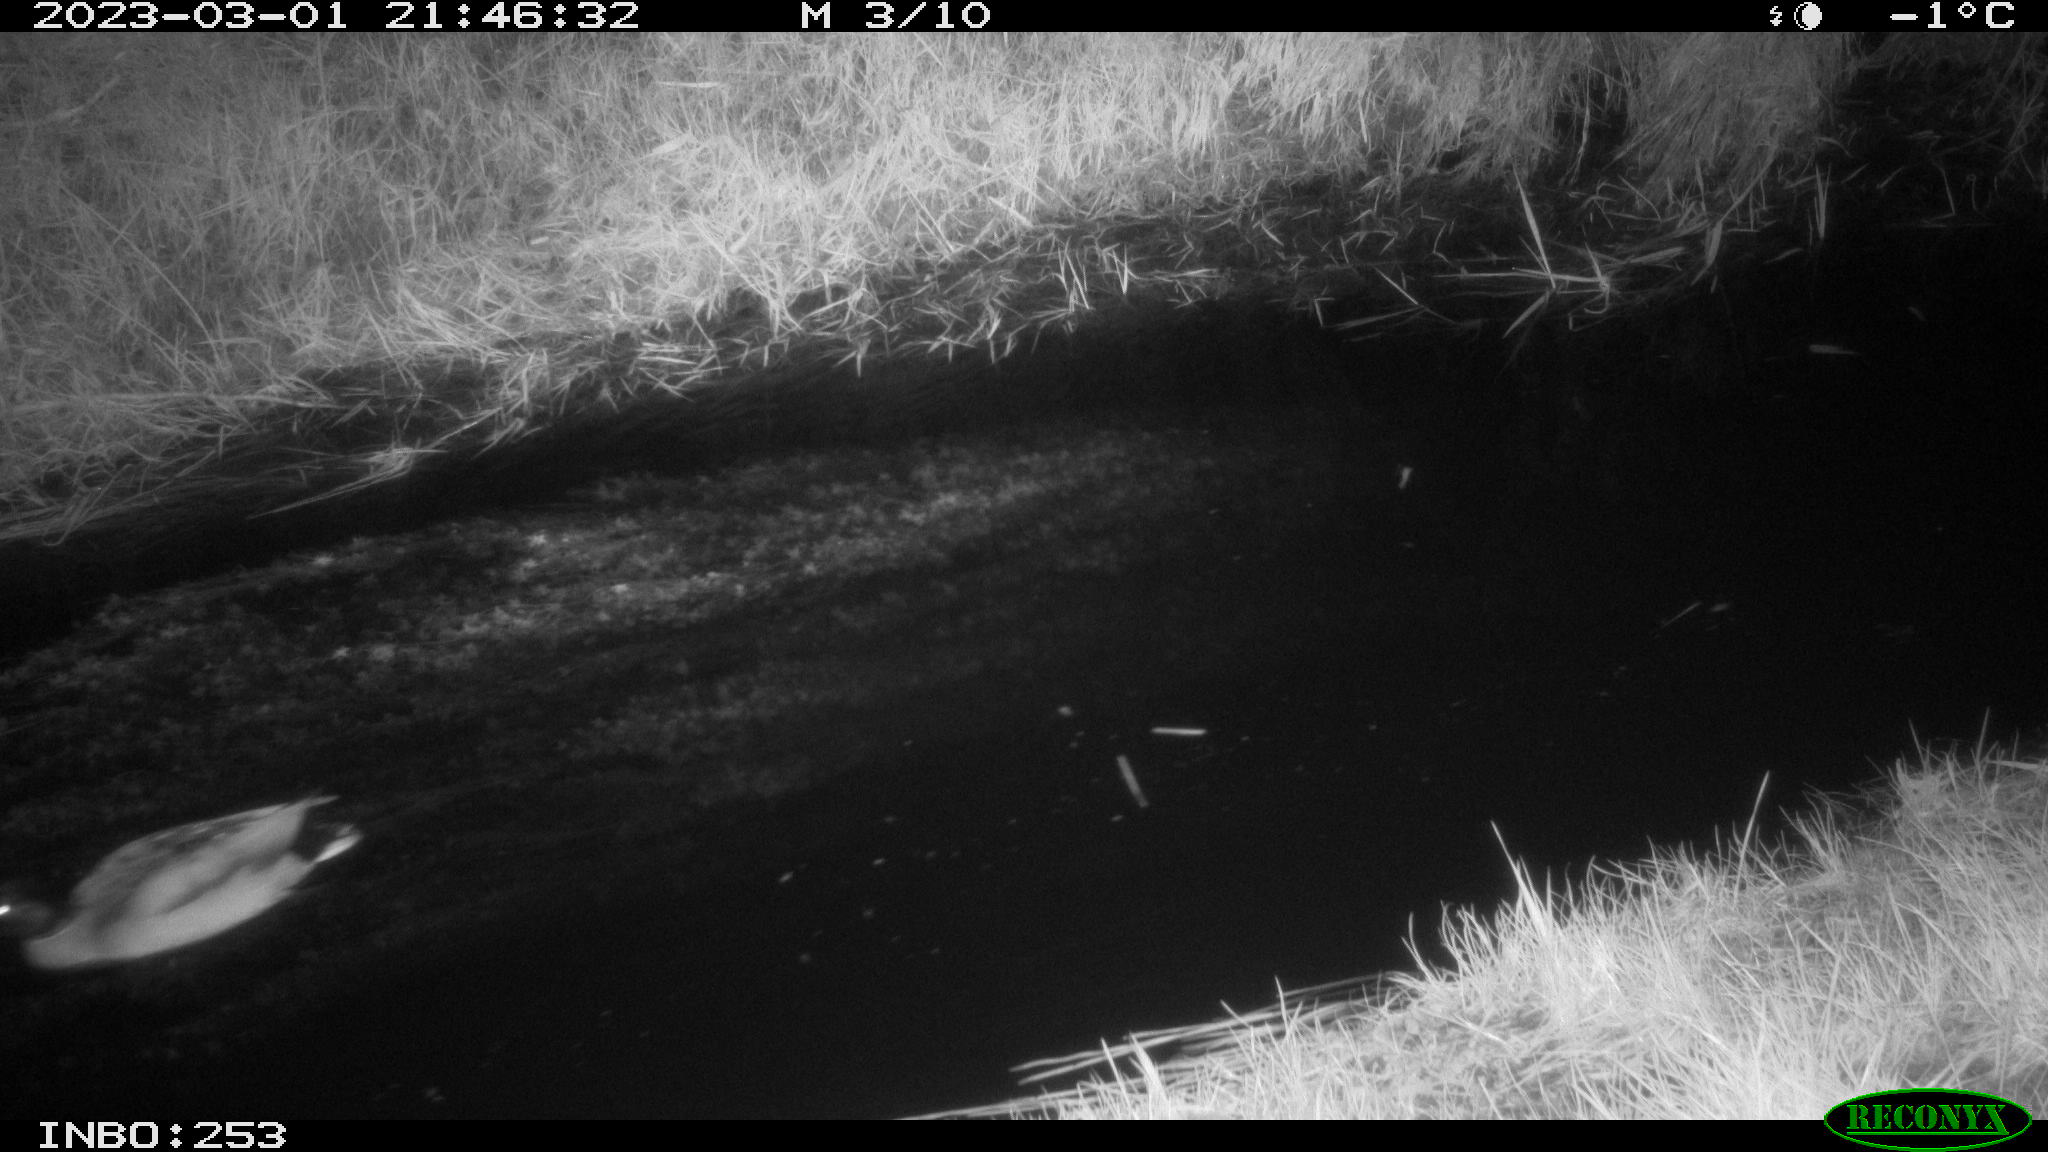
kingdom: Animalia
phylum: Chordata
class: Aves
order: Anseriformes
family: Anatidae
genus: Anas
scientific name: Anas
